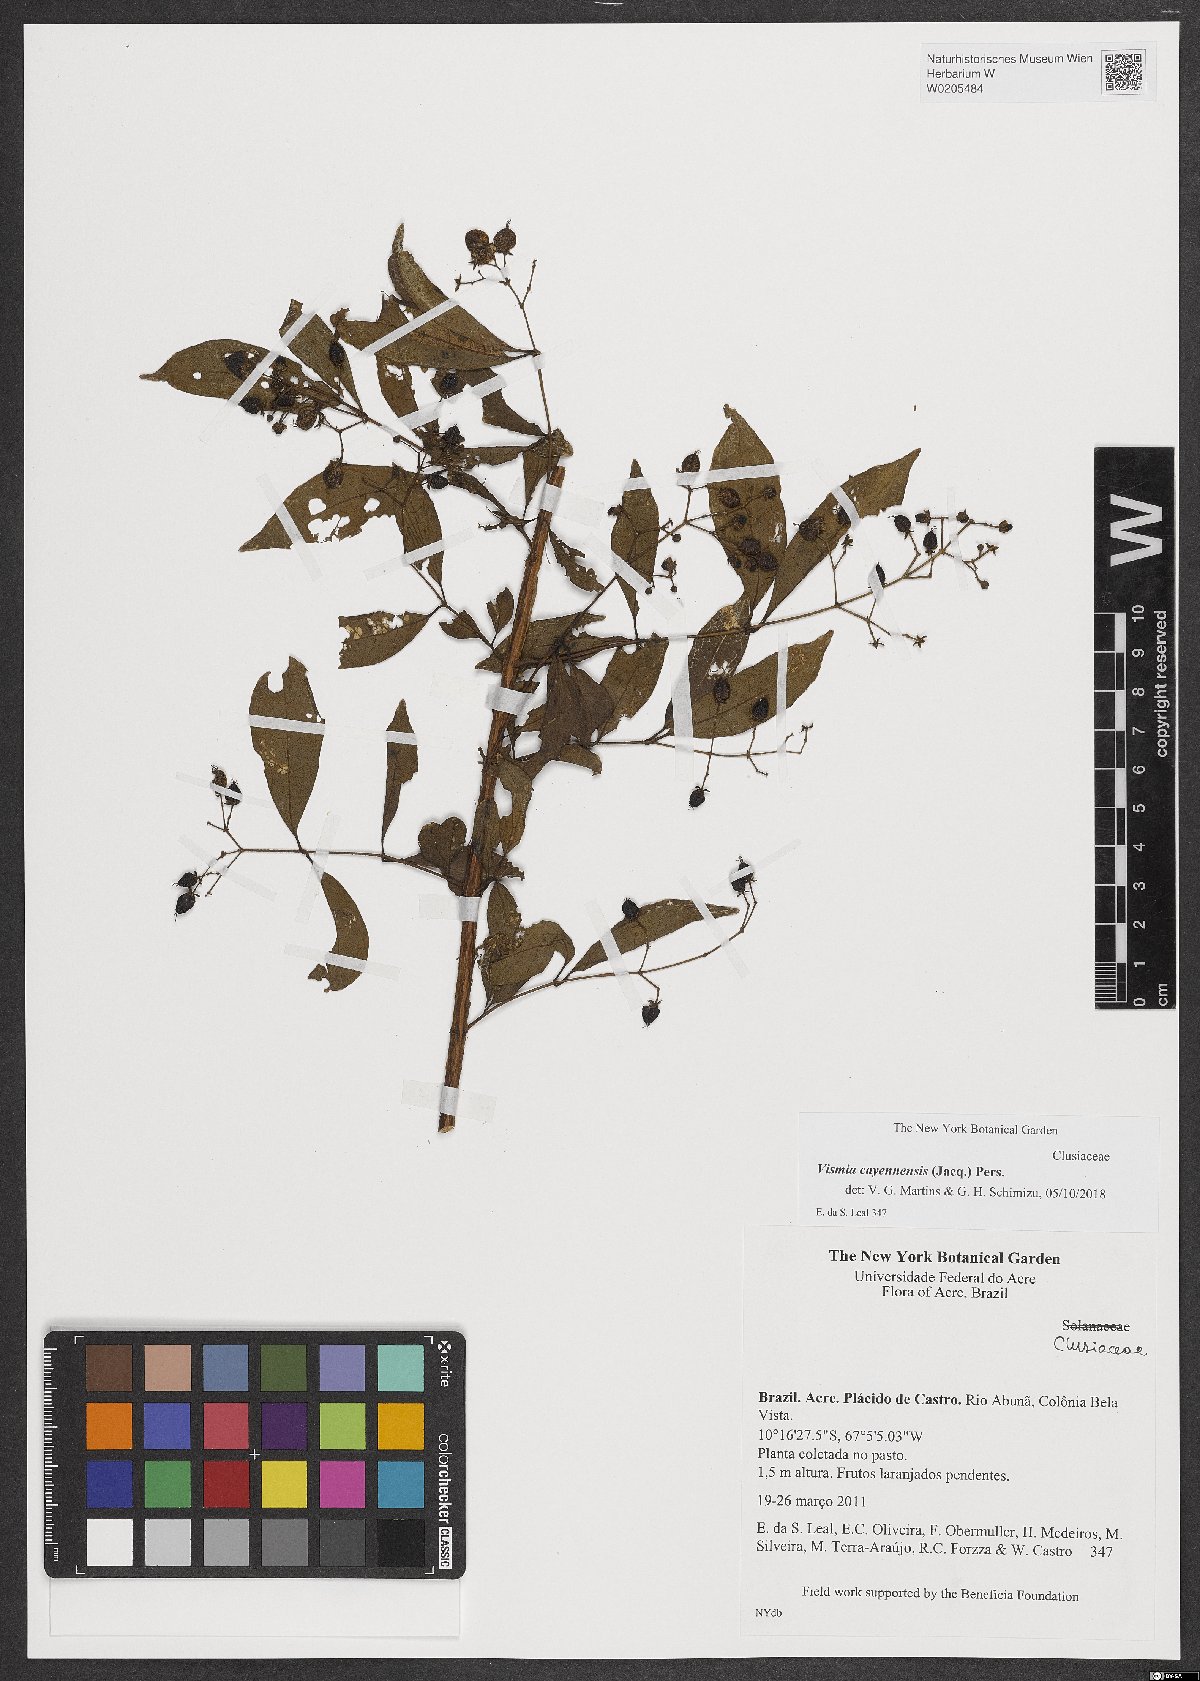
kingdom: Plantae
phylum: Tracheophyta
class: Magnoliopsida
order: Malpighiales
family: Hypericaceae
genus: Vismia
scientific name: Vismia cayennensis
